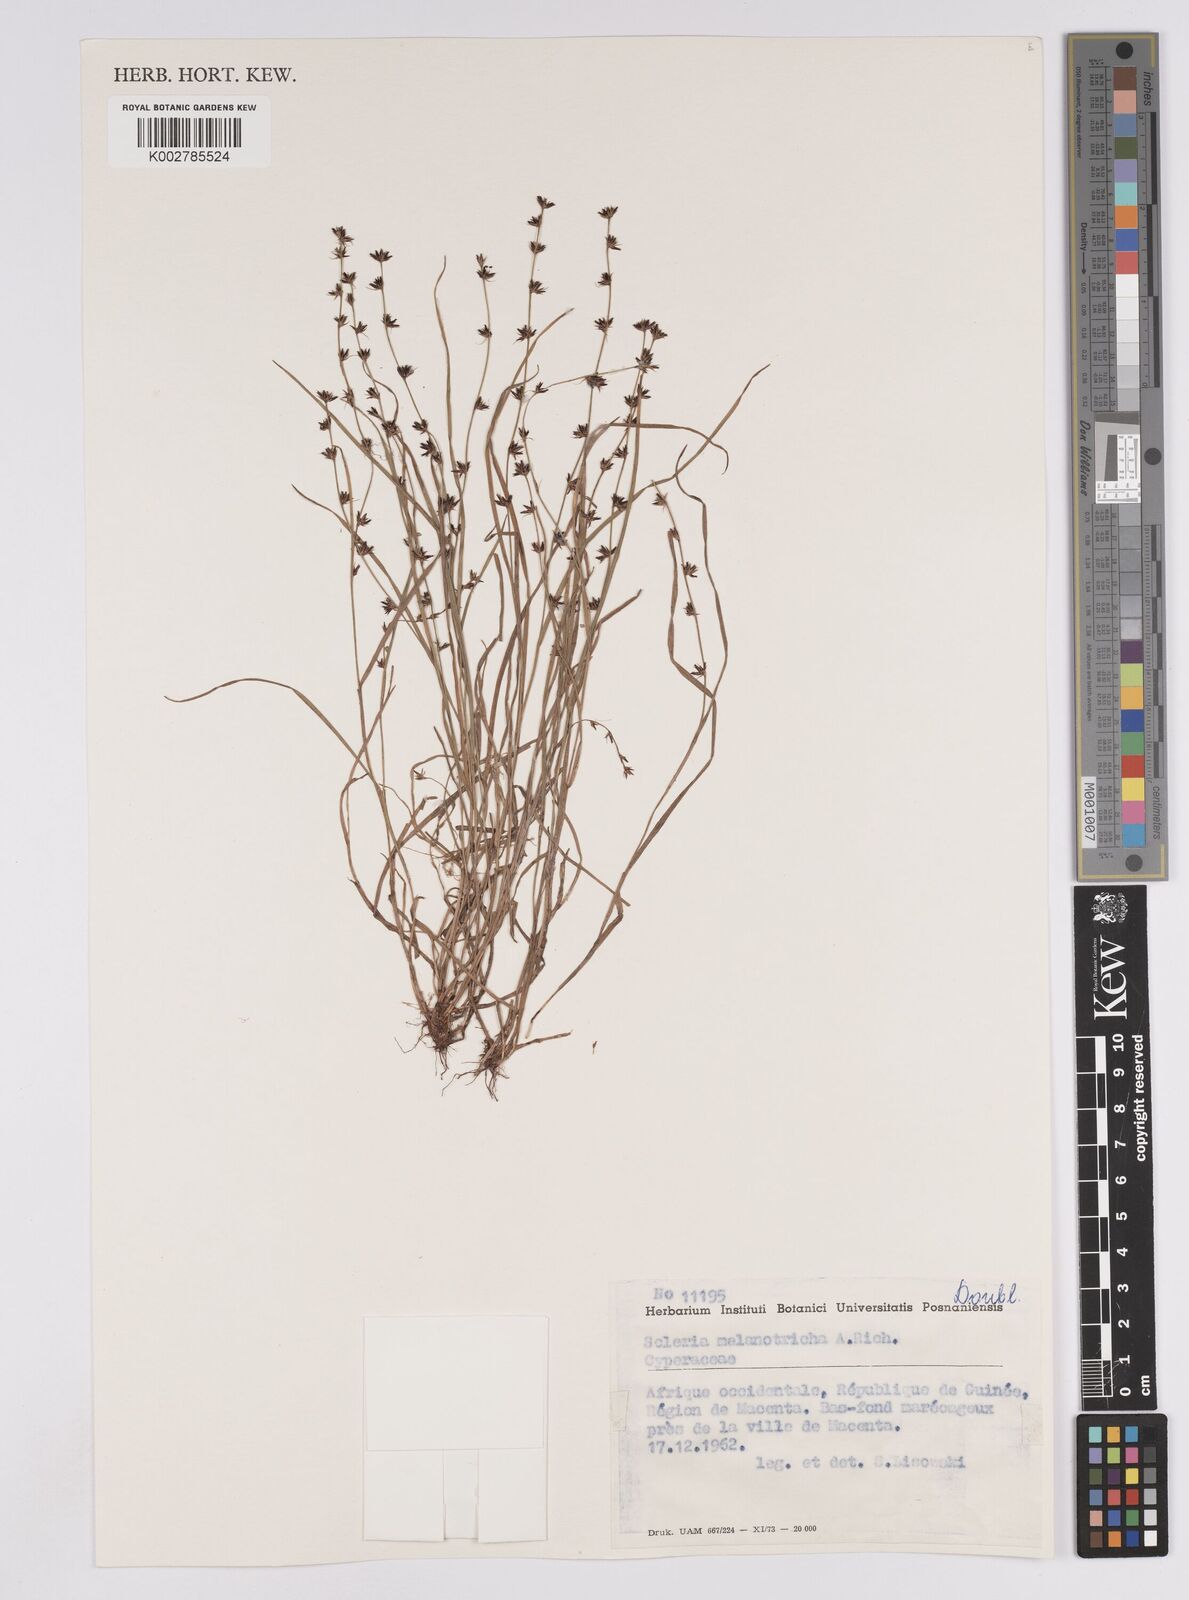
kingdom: Plantae
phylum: Tracheophyta
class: Liliopsida
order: Poales
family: Cyperaceae
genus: Scleria
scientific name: Scleria melanotricha
